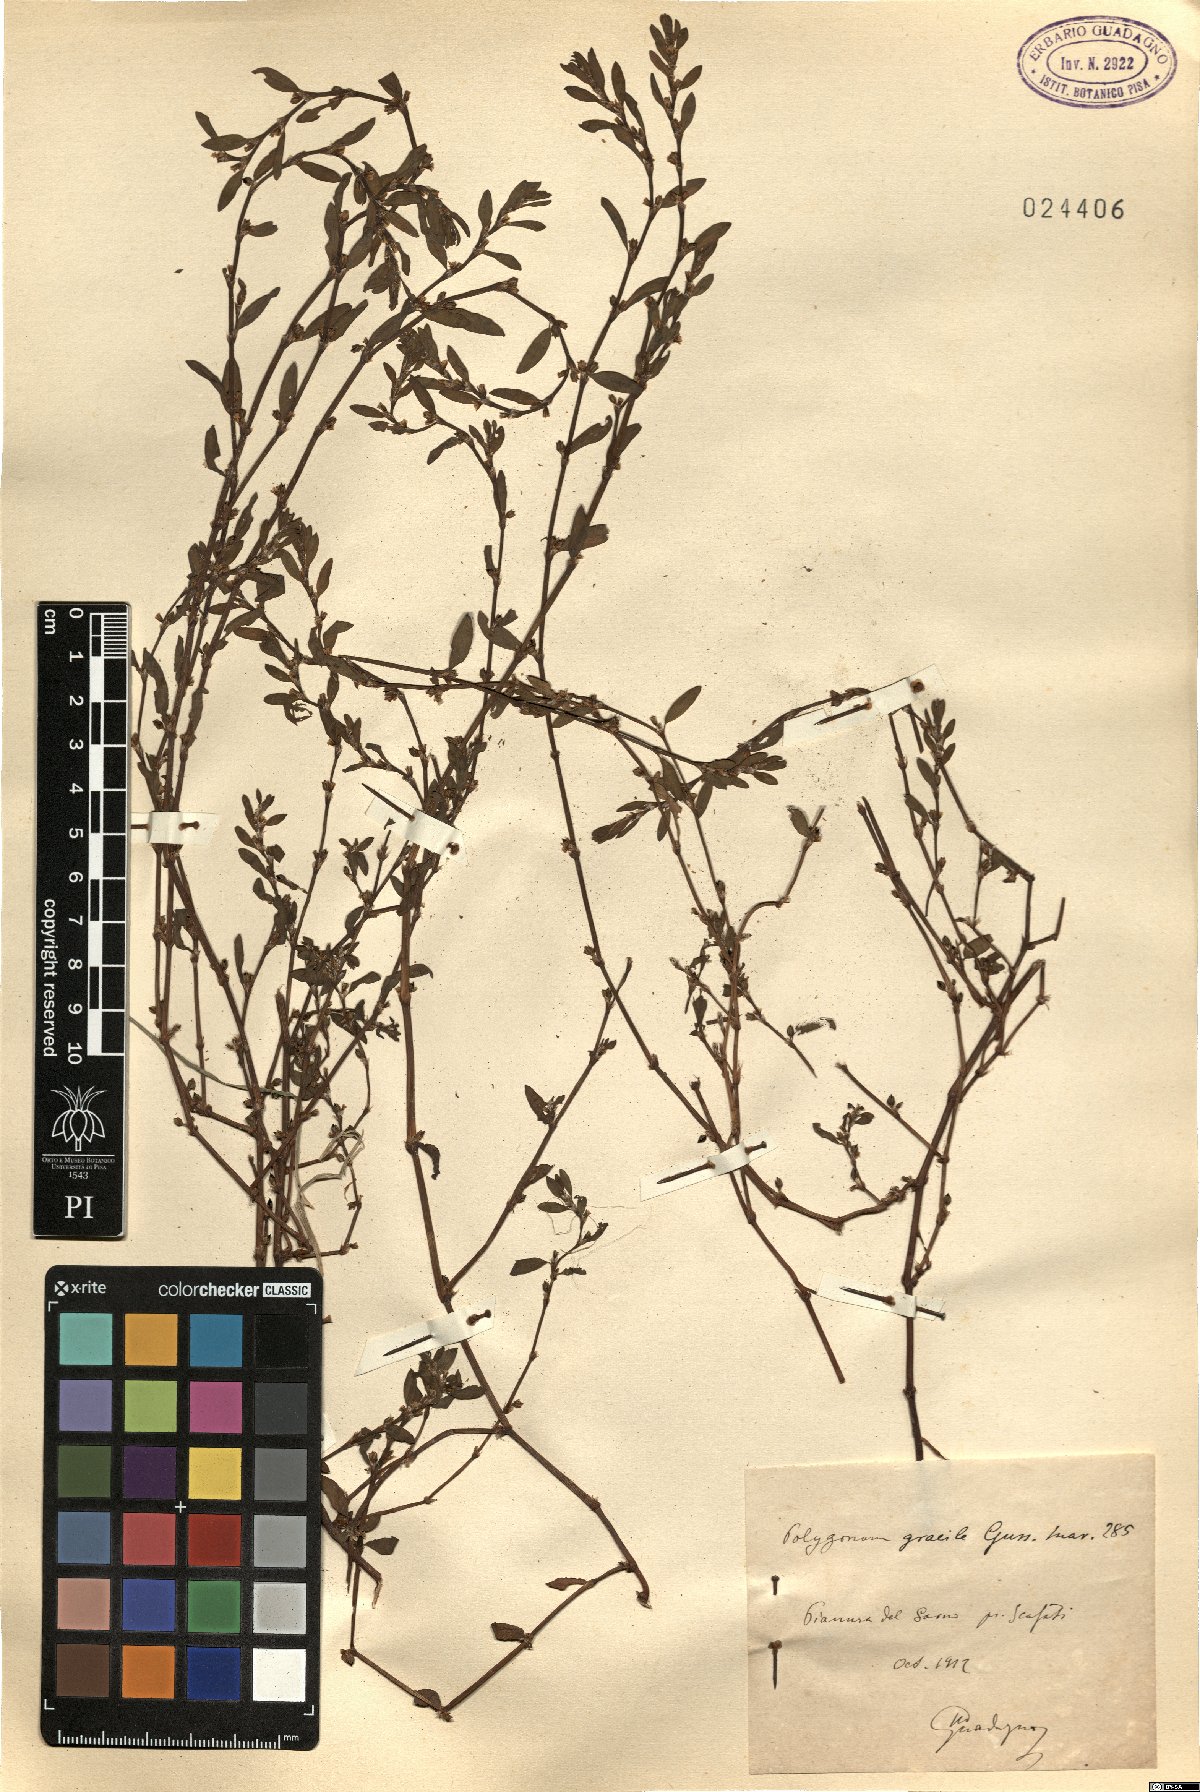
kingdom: Plantae
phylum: Tracheophyta
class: Magnoliopsida
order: Caryophyllales
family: Polygonaceae
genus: Polygonum
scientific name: Polygonum
